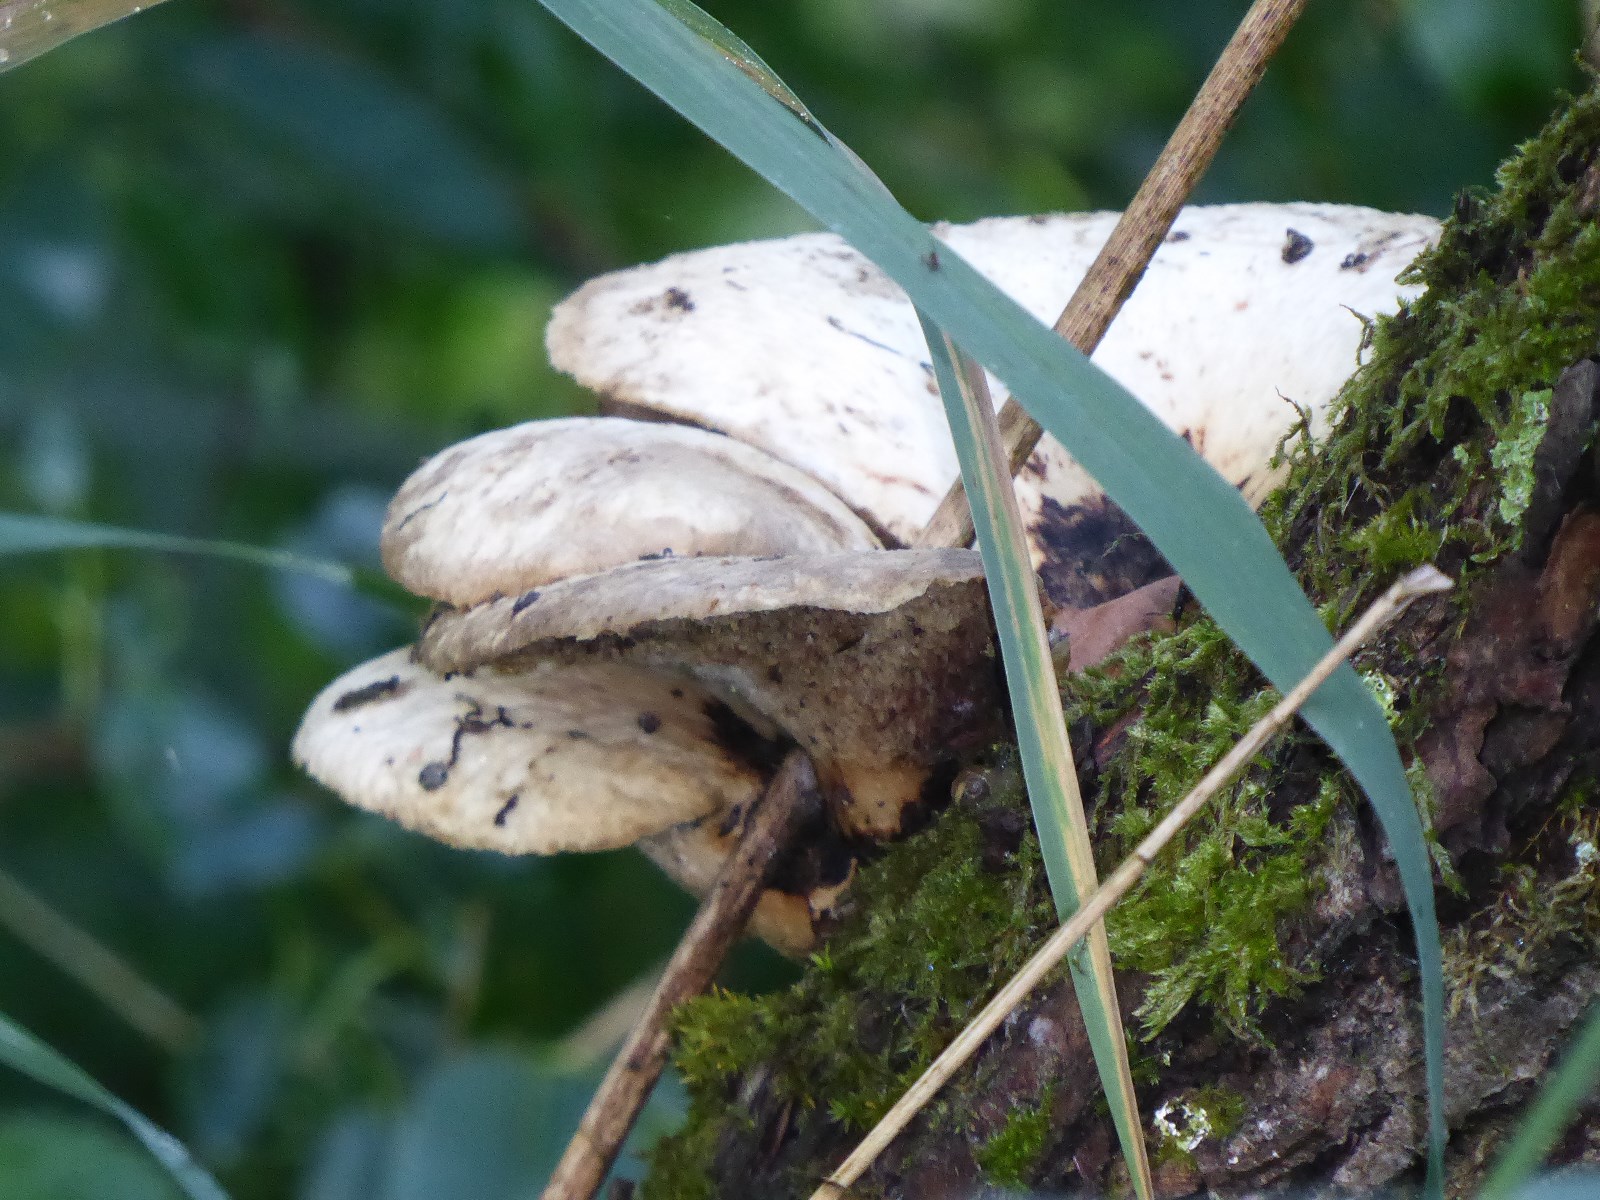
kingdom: Fungi
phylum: Basidiomycota
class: Agaricomycetes
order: Polyporales
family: Polyporaceae
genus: Cerioporus
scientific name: Cerioporus squamosus
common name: skællet stilkporesvamp
